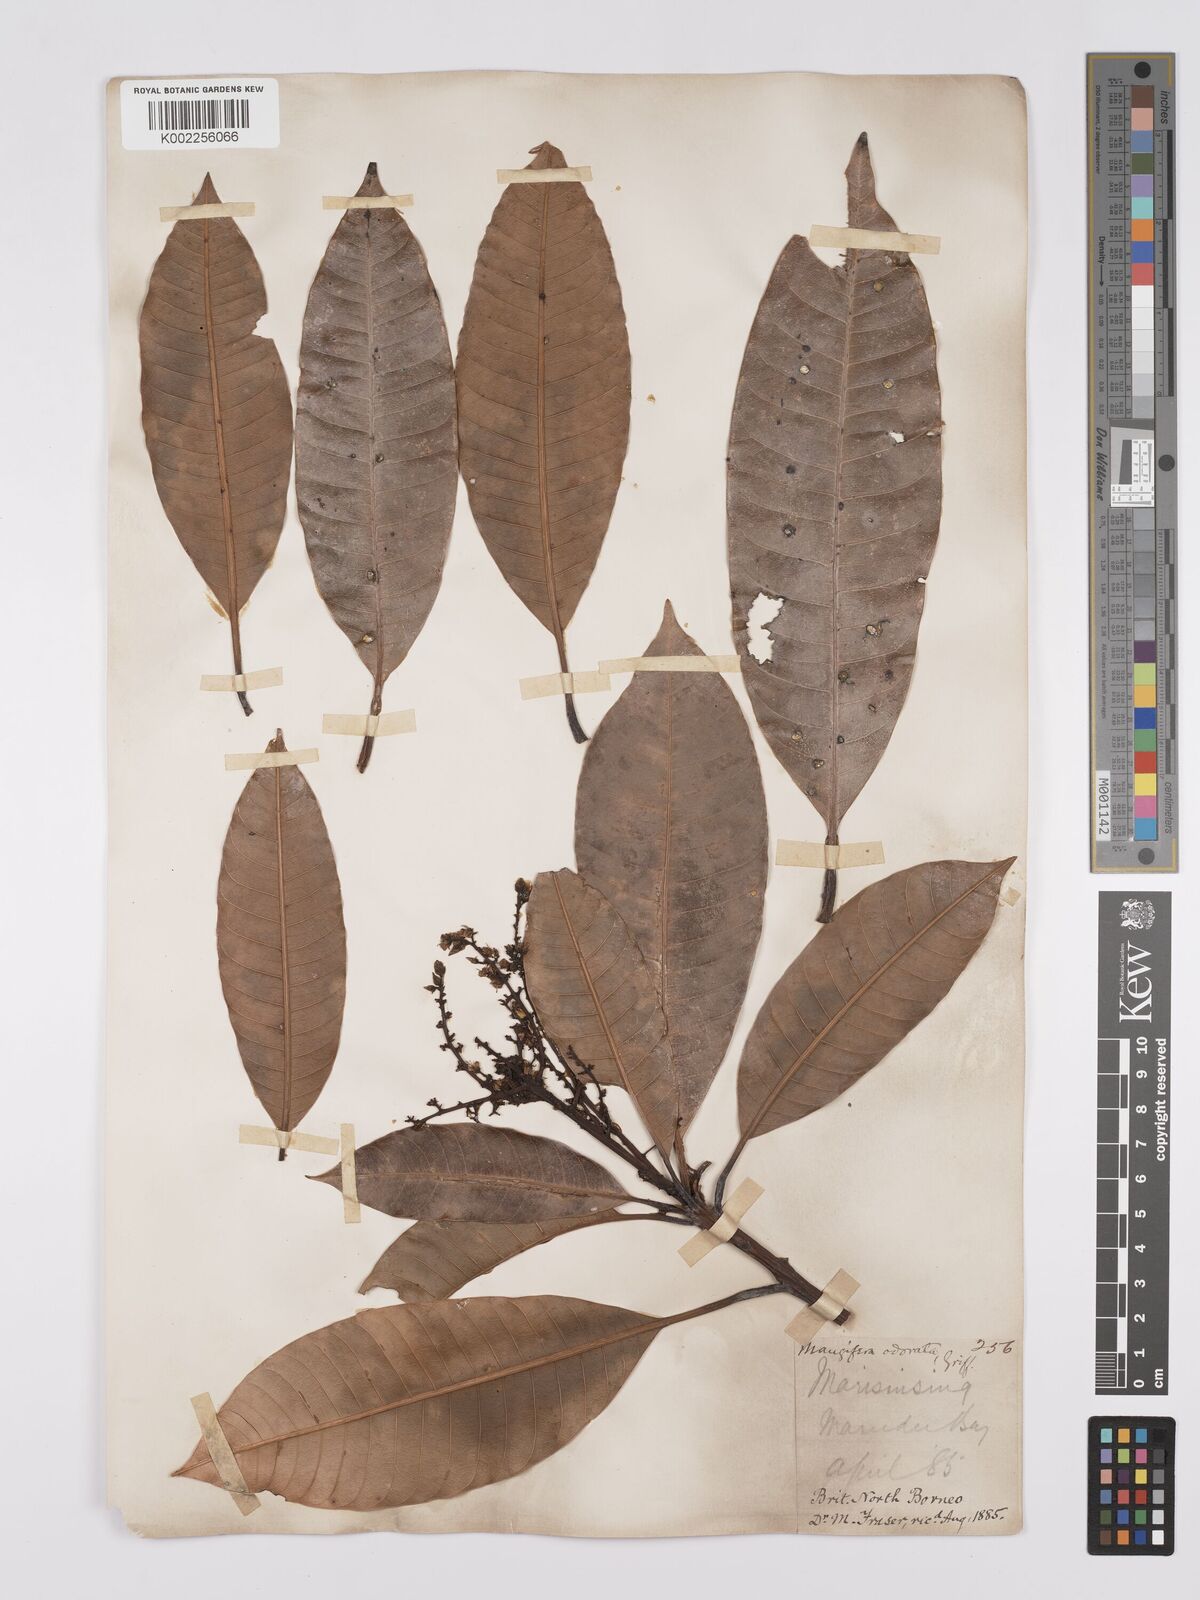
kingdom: Plantae
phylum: Tracheophyta
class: Magnoliopsida
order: Sapindales
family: Anacardiaceae
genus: Mangifera
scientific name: Mangifera odorata
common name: Saipan mango
